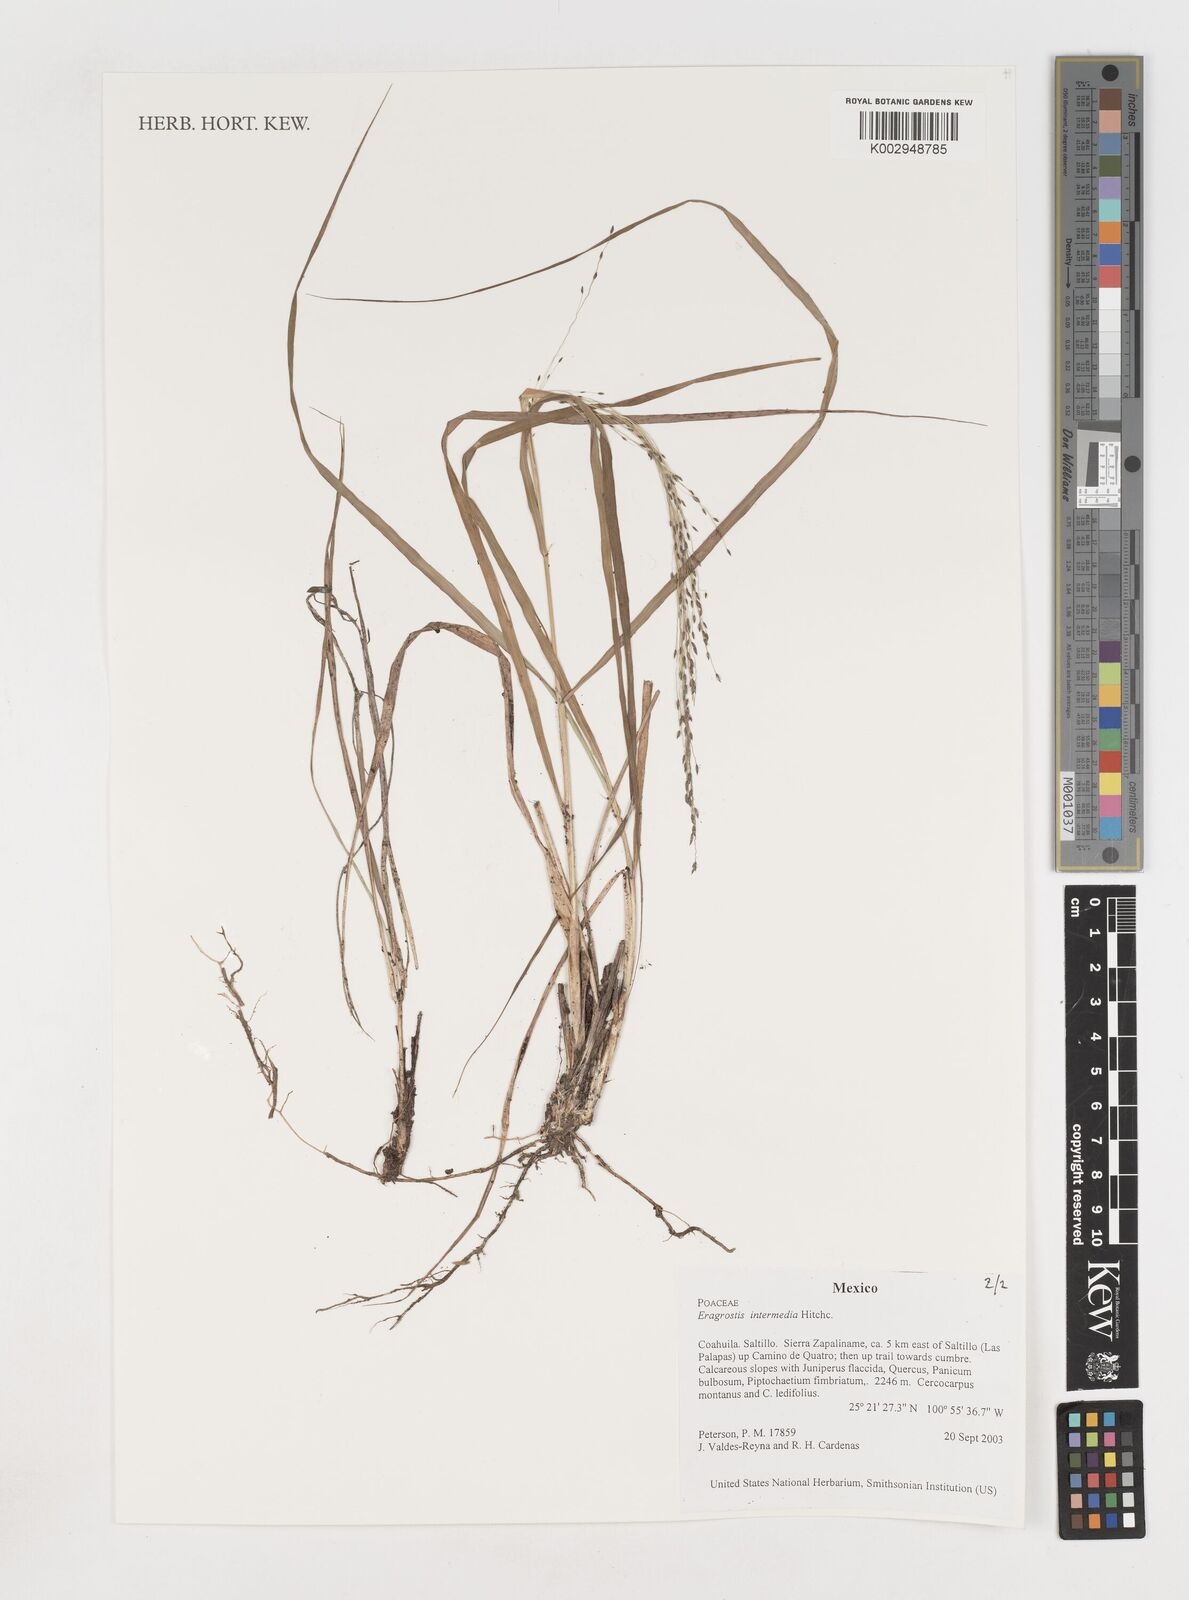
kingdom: Plantae
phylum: Tracheophyta
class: Liliopsida
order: Poales
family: Poaceae
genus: Eragrostis
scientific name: Eragrostis intermedia
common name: Plains love grass
